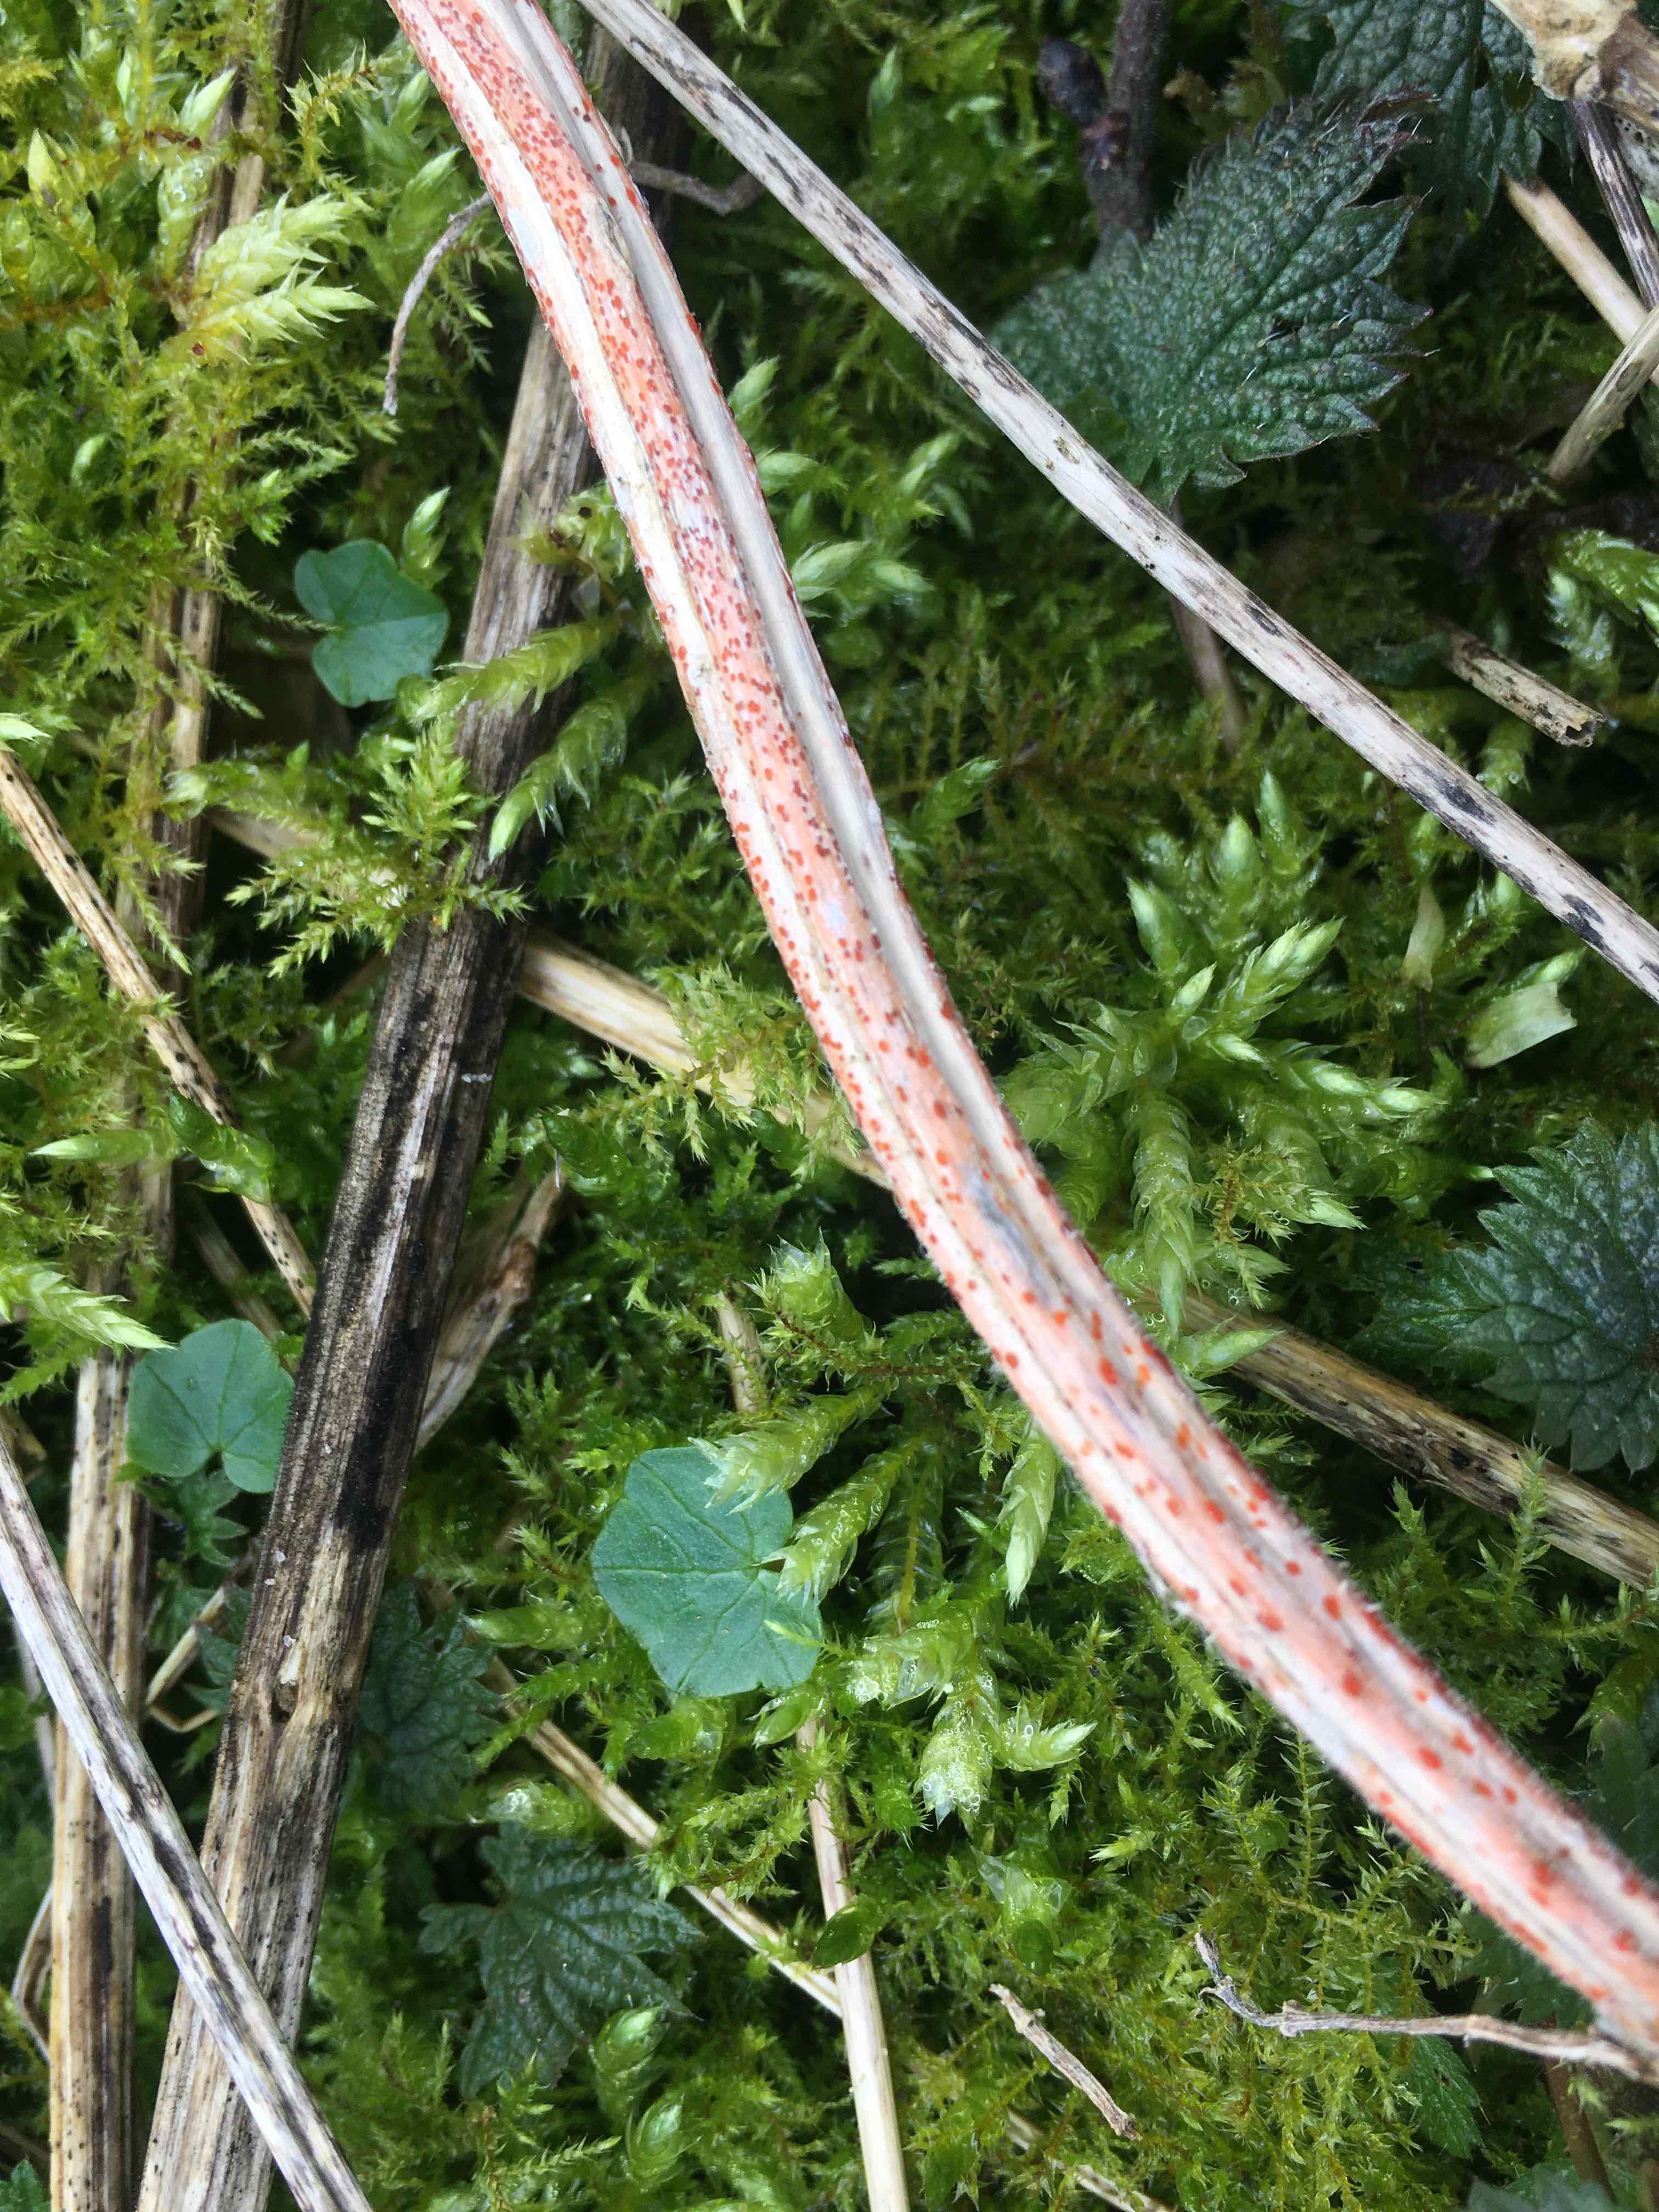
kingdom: Fungi
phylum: Ascomycota
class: Leotiomycetes
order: Helotiales
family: Calloriaceae
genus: Calloria
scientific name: Calloria urticae
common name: nælde-orangeskive
